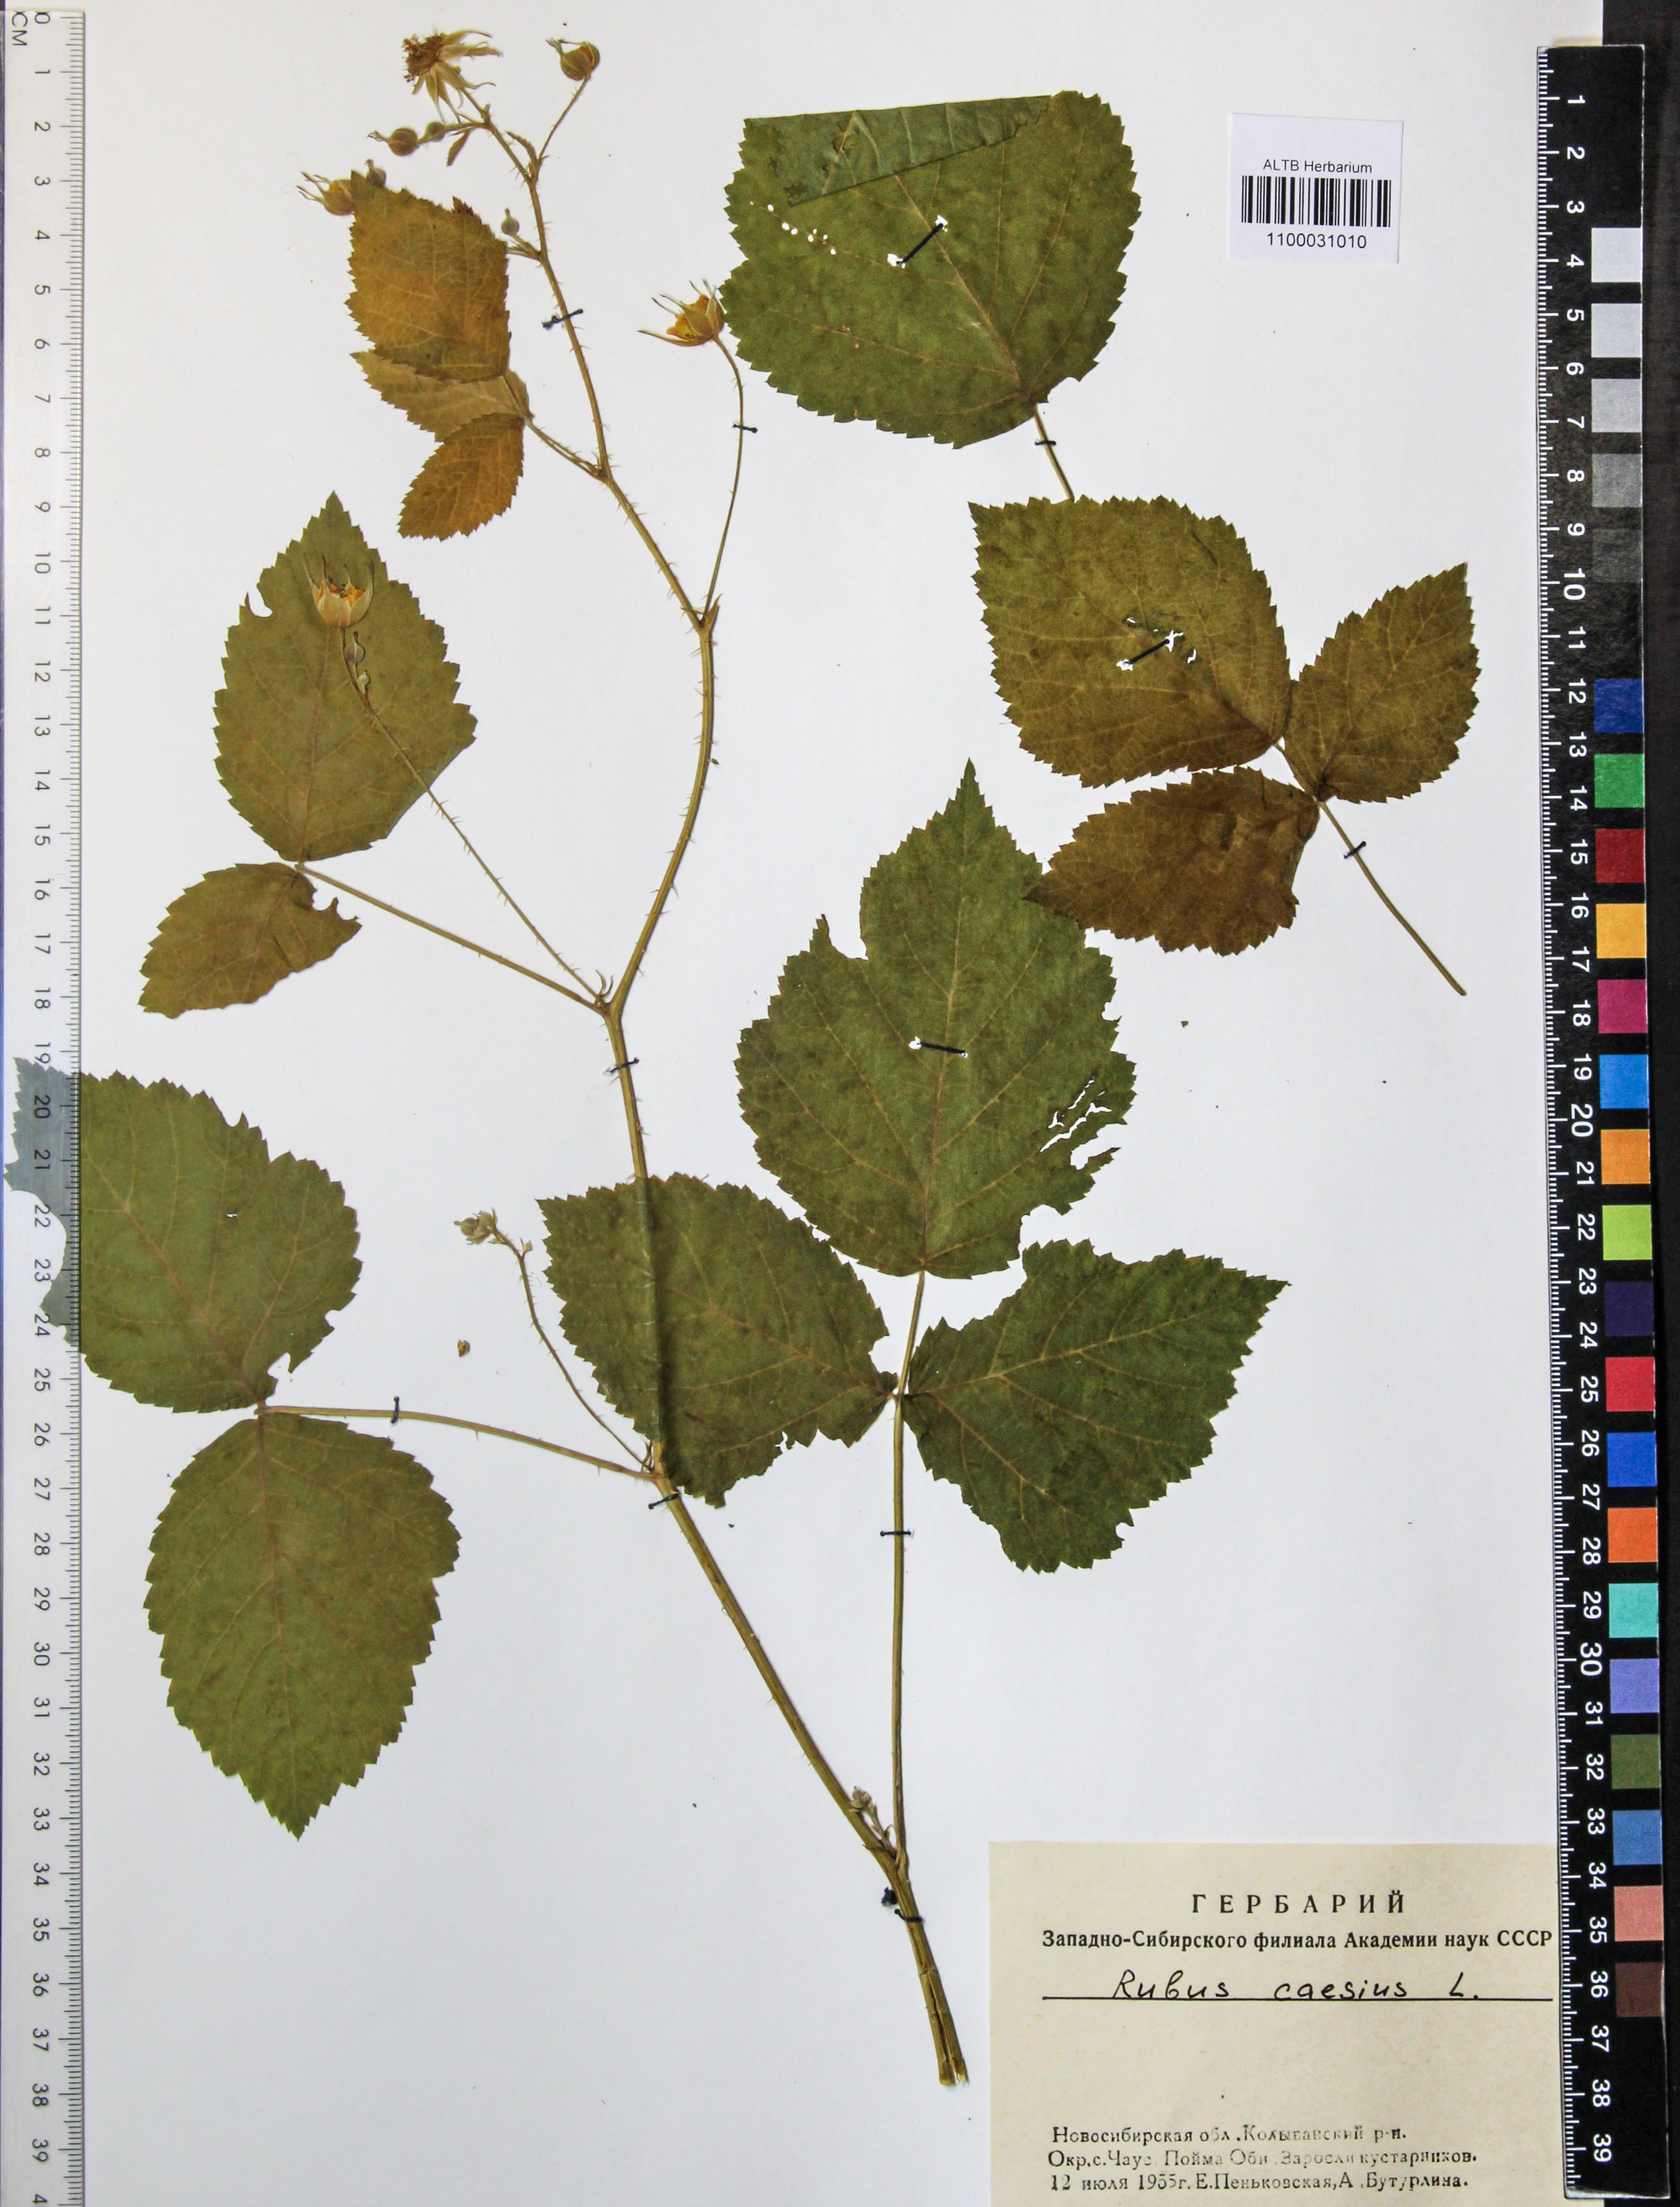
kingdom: Plantae
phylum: Tracheophyta
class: Magnoliopsida
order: Rosales
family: Rosaceae
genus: Rubus
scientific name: Rubus caesius
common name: Dewberry
